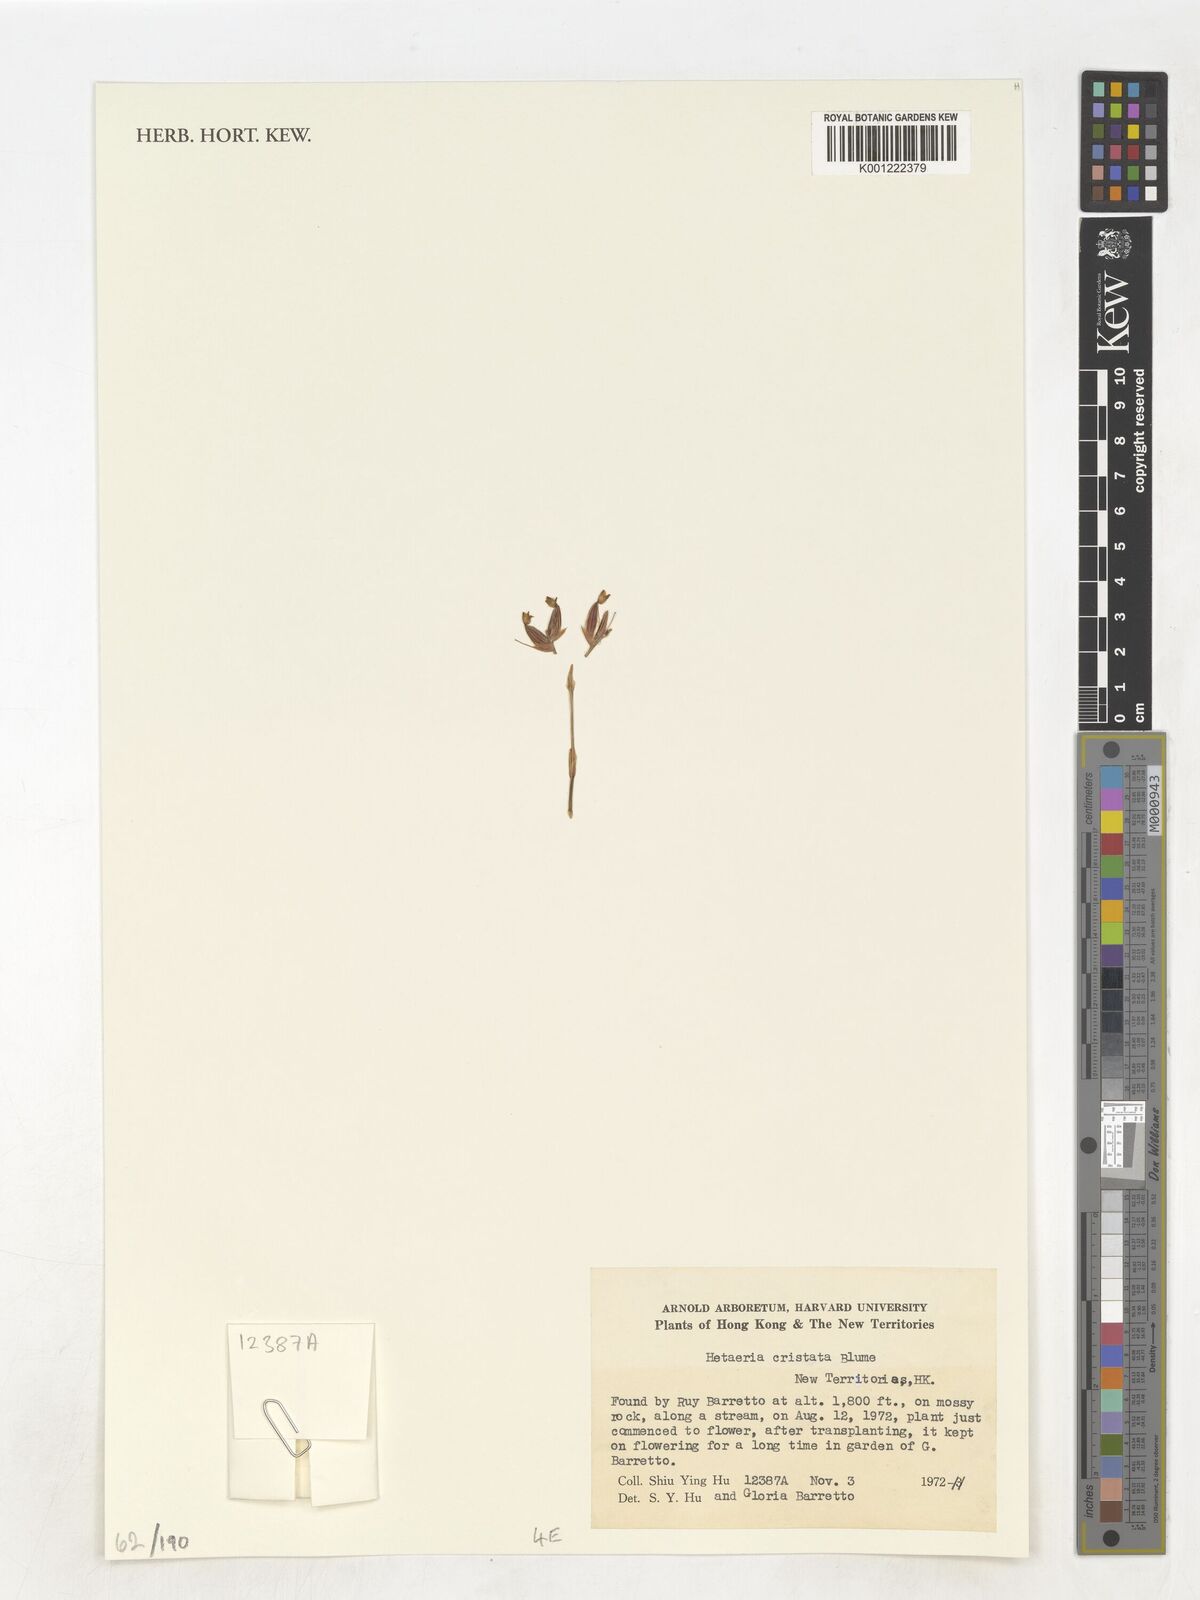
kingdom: Plantae
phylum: Tracheophyta
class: Liliopsida
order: Asparagales
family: Orchidaceae
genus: Rhomboda
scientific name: Rhomboda cristata
